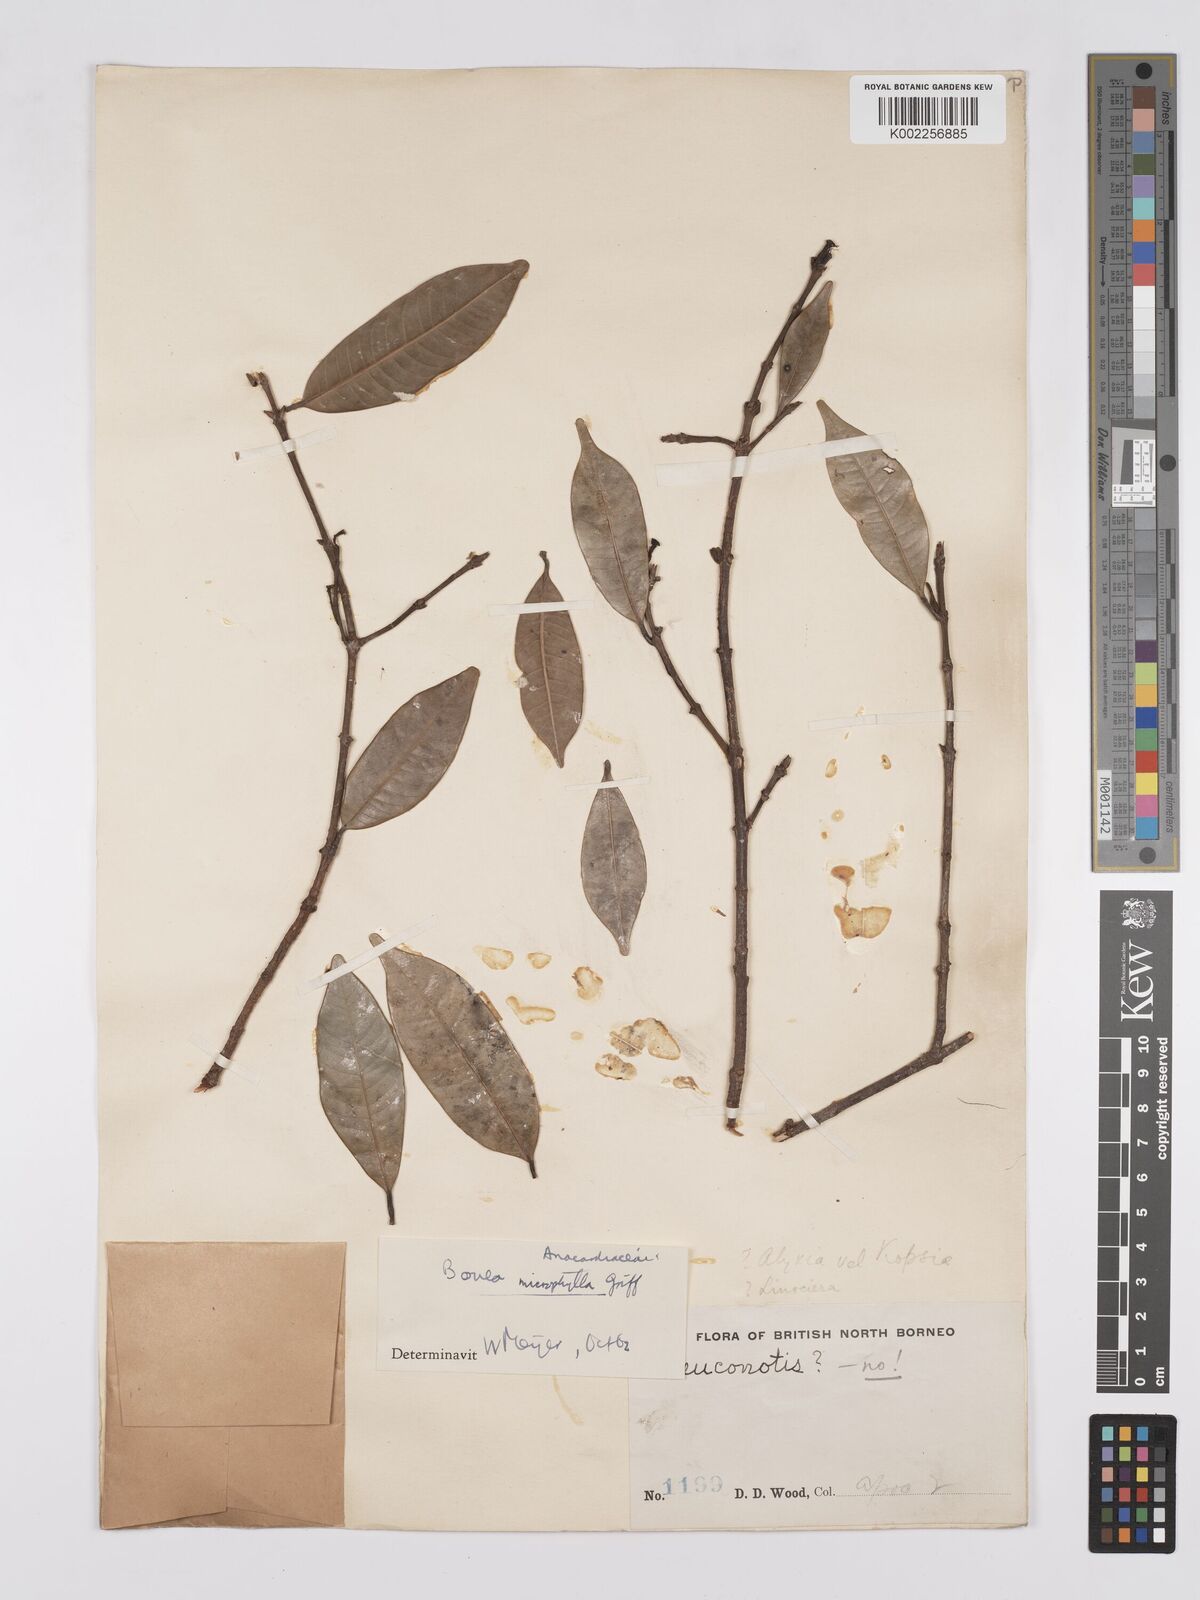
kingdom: Plantae
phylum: Tracheophyta
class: Magnoliopsida
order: Sapindales
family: Anacardiaceae
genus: Bouea
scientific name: Bouea oppositifolia
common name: Narrow-leaved kundang
